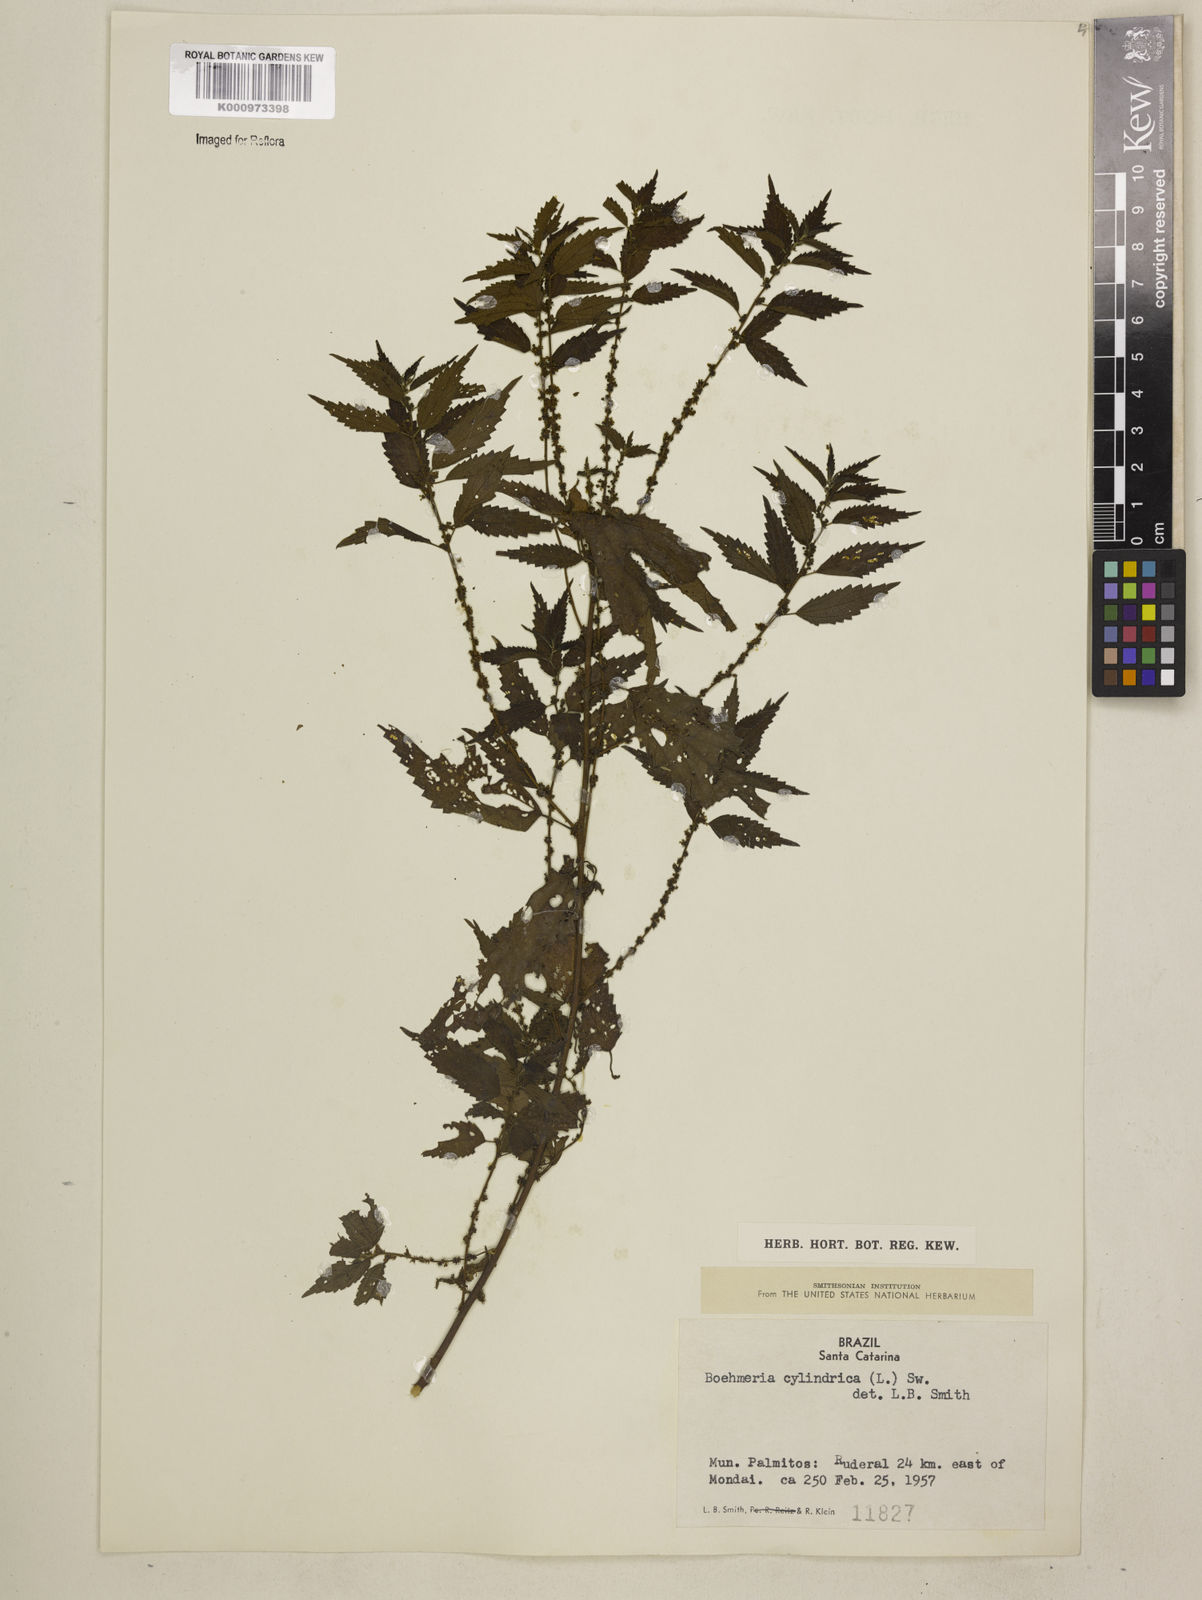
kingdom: Plantae
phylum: Tracheophyta
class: Magnoliopsida
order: Rosales
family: Urticaceae
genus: Boehmeria
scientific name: Boehmeria cylindrica
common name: Bog-hemp
